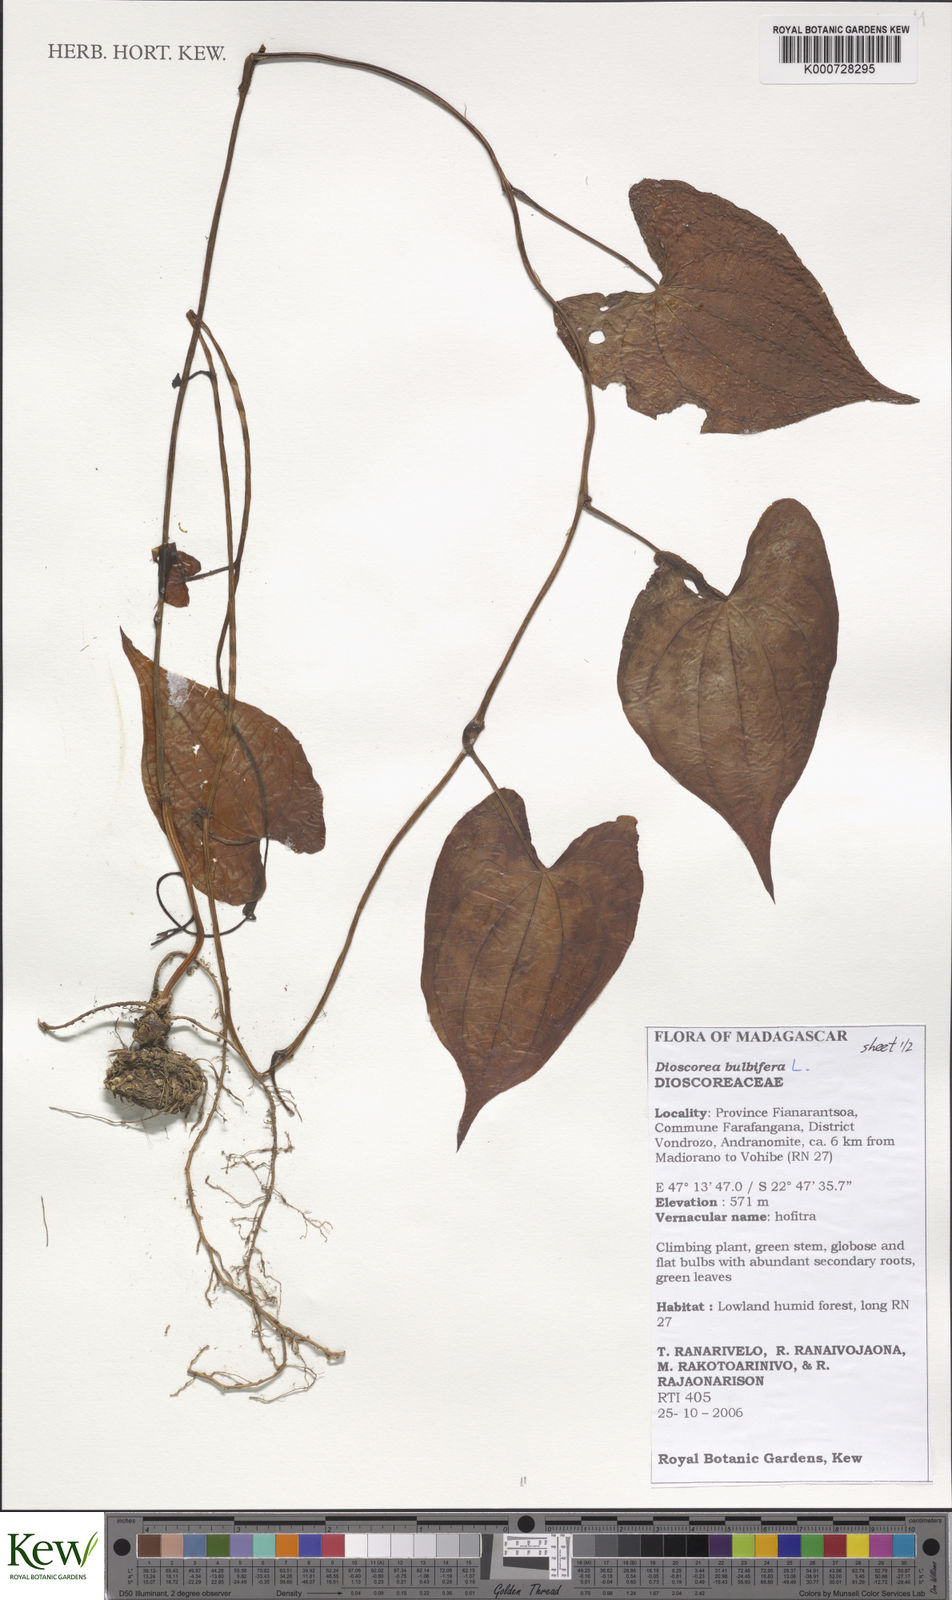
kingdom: Plantae
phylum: Tracheophyta
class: Liliopsida
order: Dioscoreales
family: Dioscoreaceae
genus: Dioscorea
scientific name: Dioscorea bulbifera
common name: Air yam
